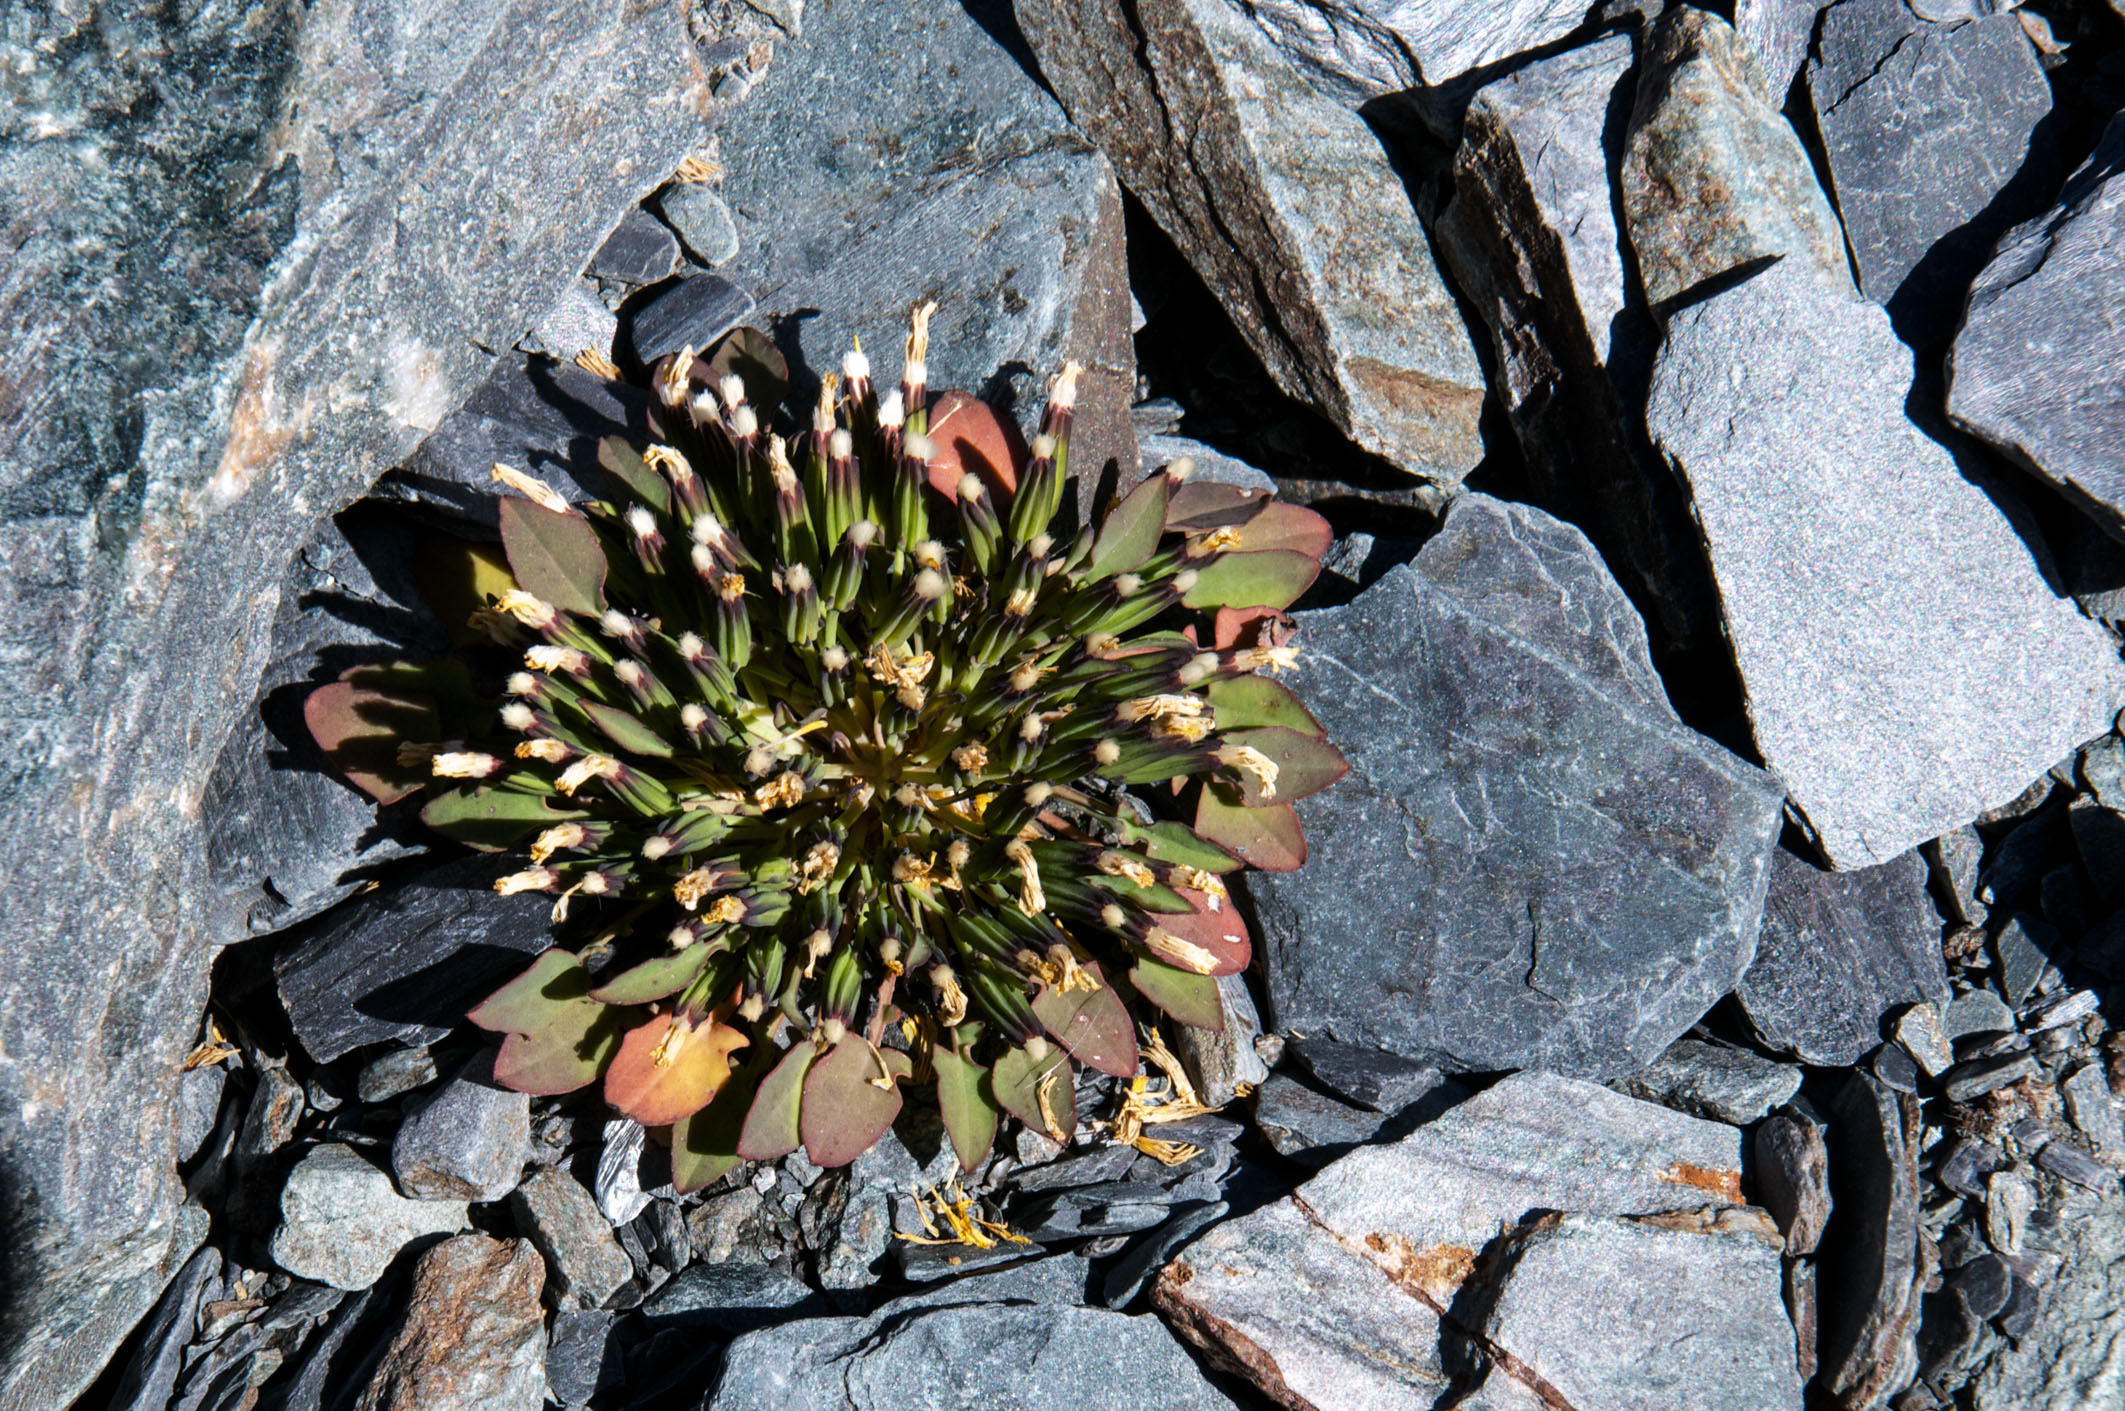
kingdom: Plantae
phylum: Tracheophyta
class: Magnoliopsida
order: Asterales
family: Asteraceae
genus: Askellia
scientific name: Askellia pygmaea
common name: Dwarf alpine hawksbeard
